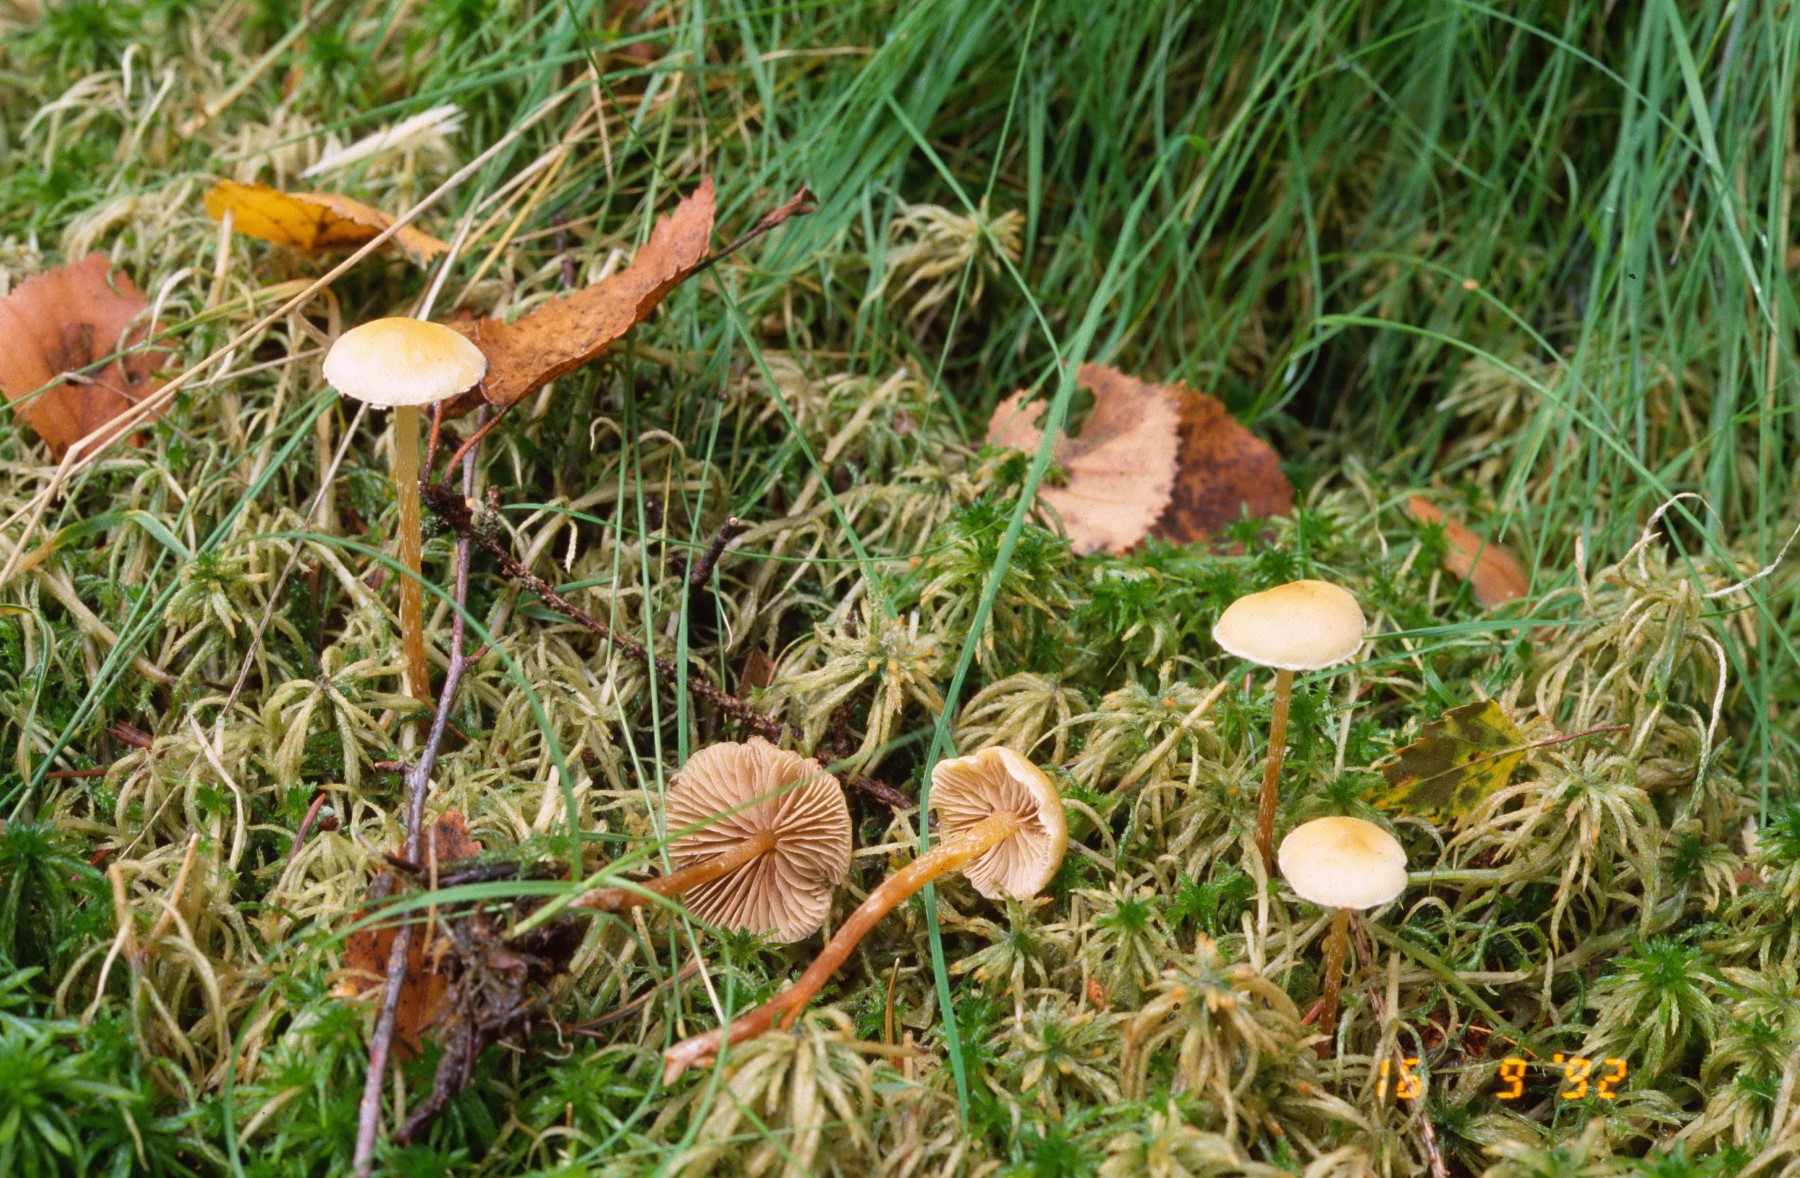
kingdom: Fungi
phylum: Basidiomycota
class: Agaricomycetes
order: Agaricales
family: Strophariaceae
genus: Hypholoma
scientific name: Hypholoma elongatum
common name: slank svovlhat
